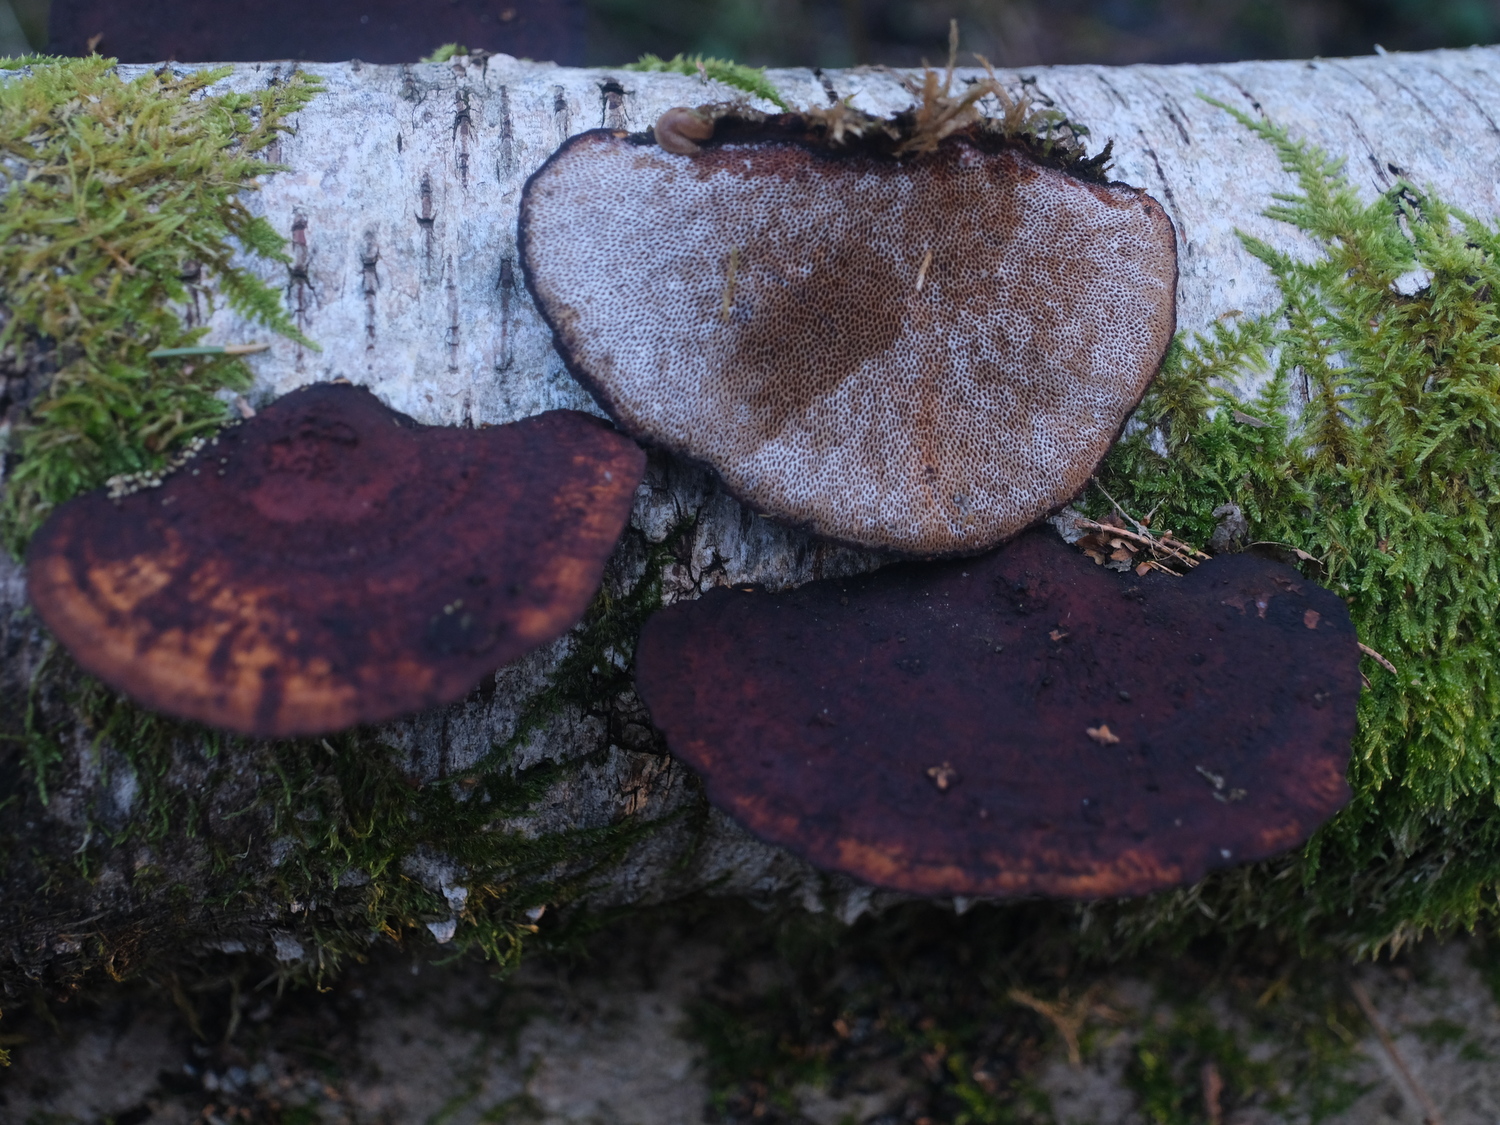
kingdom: Fungi
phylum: Basidiomycota
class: Agaricomycetes
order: Polyporales
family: Polyporaceae
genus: Daedaleopsis
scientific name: Daedaleopsis confragosa
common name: rødmende læderporesvamp
